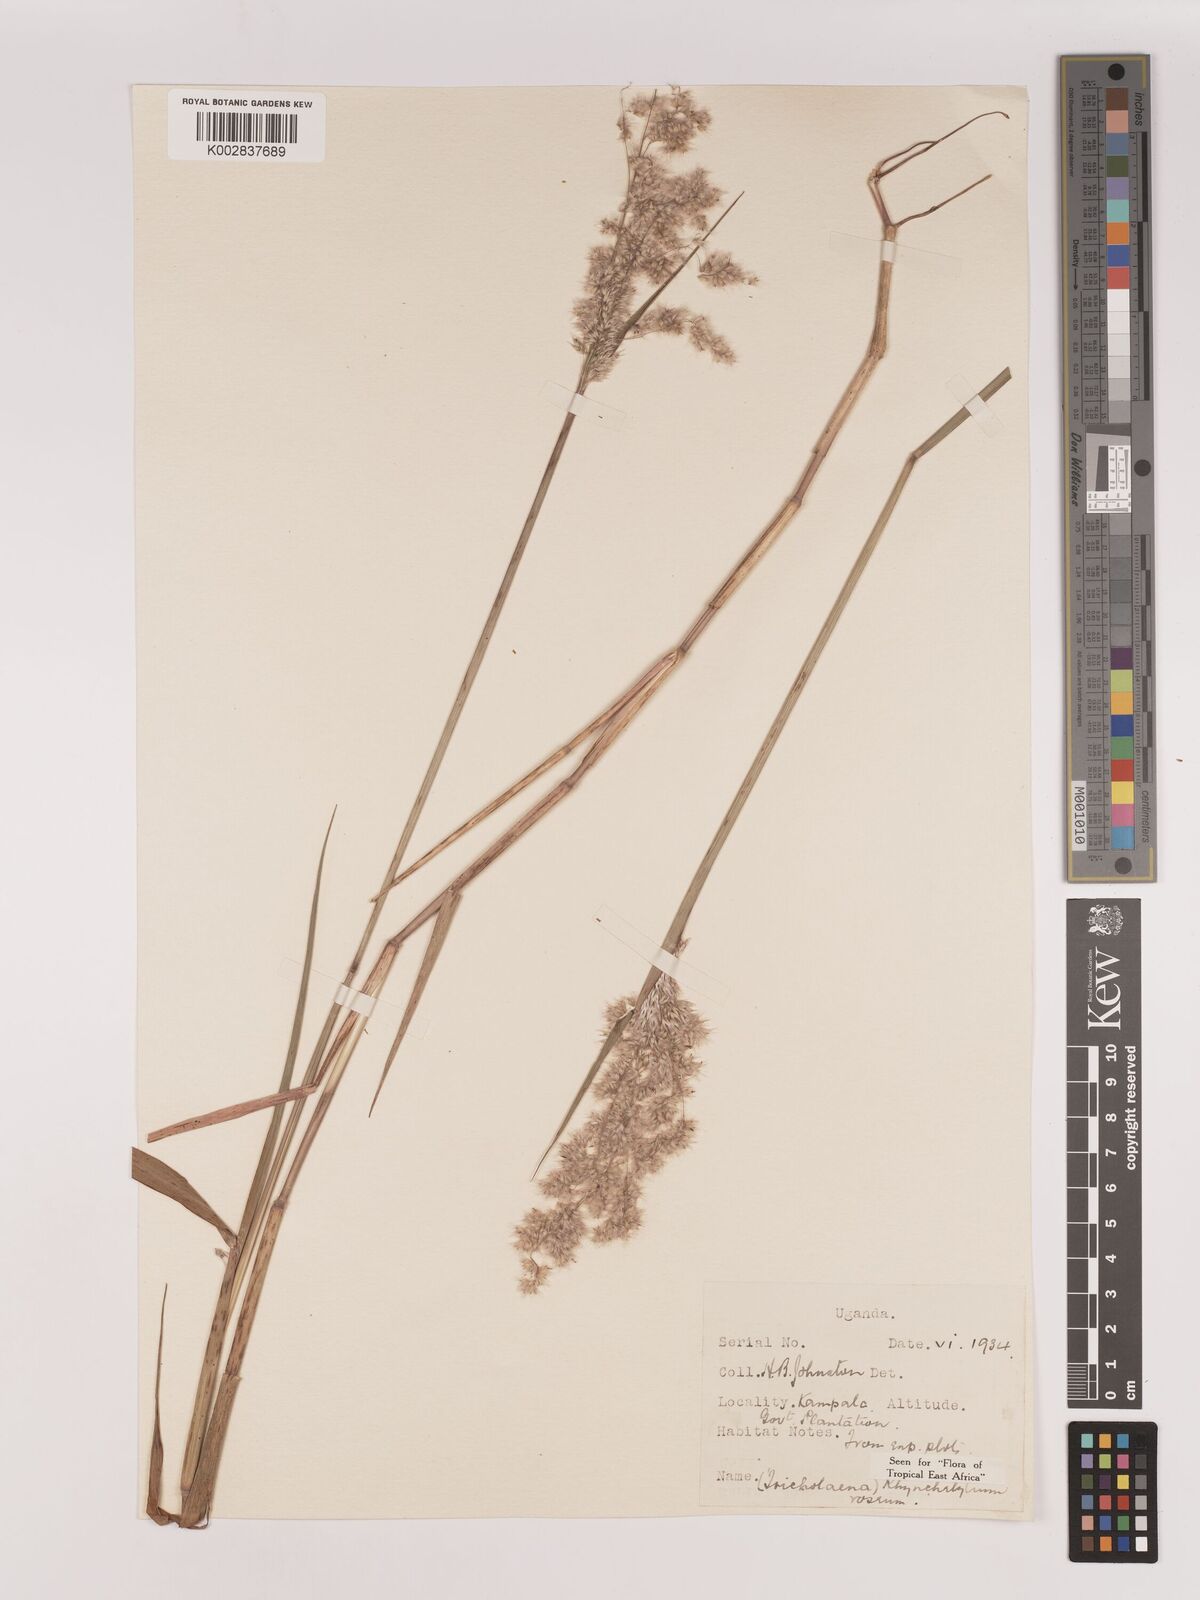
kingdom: Plantae
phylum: Tracheophyta
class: Liliopsida
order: Poales
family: Poaceae
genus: Melinis
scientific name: Melinis repens
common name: Rose natal grass
